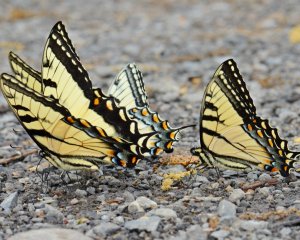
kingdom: Animalia
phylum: Arthropoda
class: Insecta
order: Lepidoptera
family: Papilionidae
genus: Pterourus
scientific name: Pterourus glaucus
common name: Eastern Tiger Swallowtail
